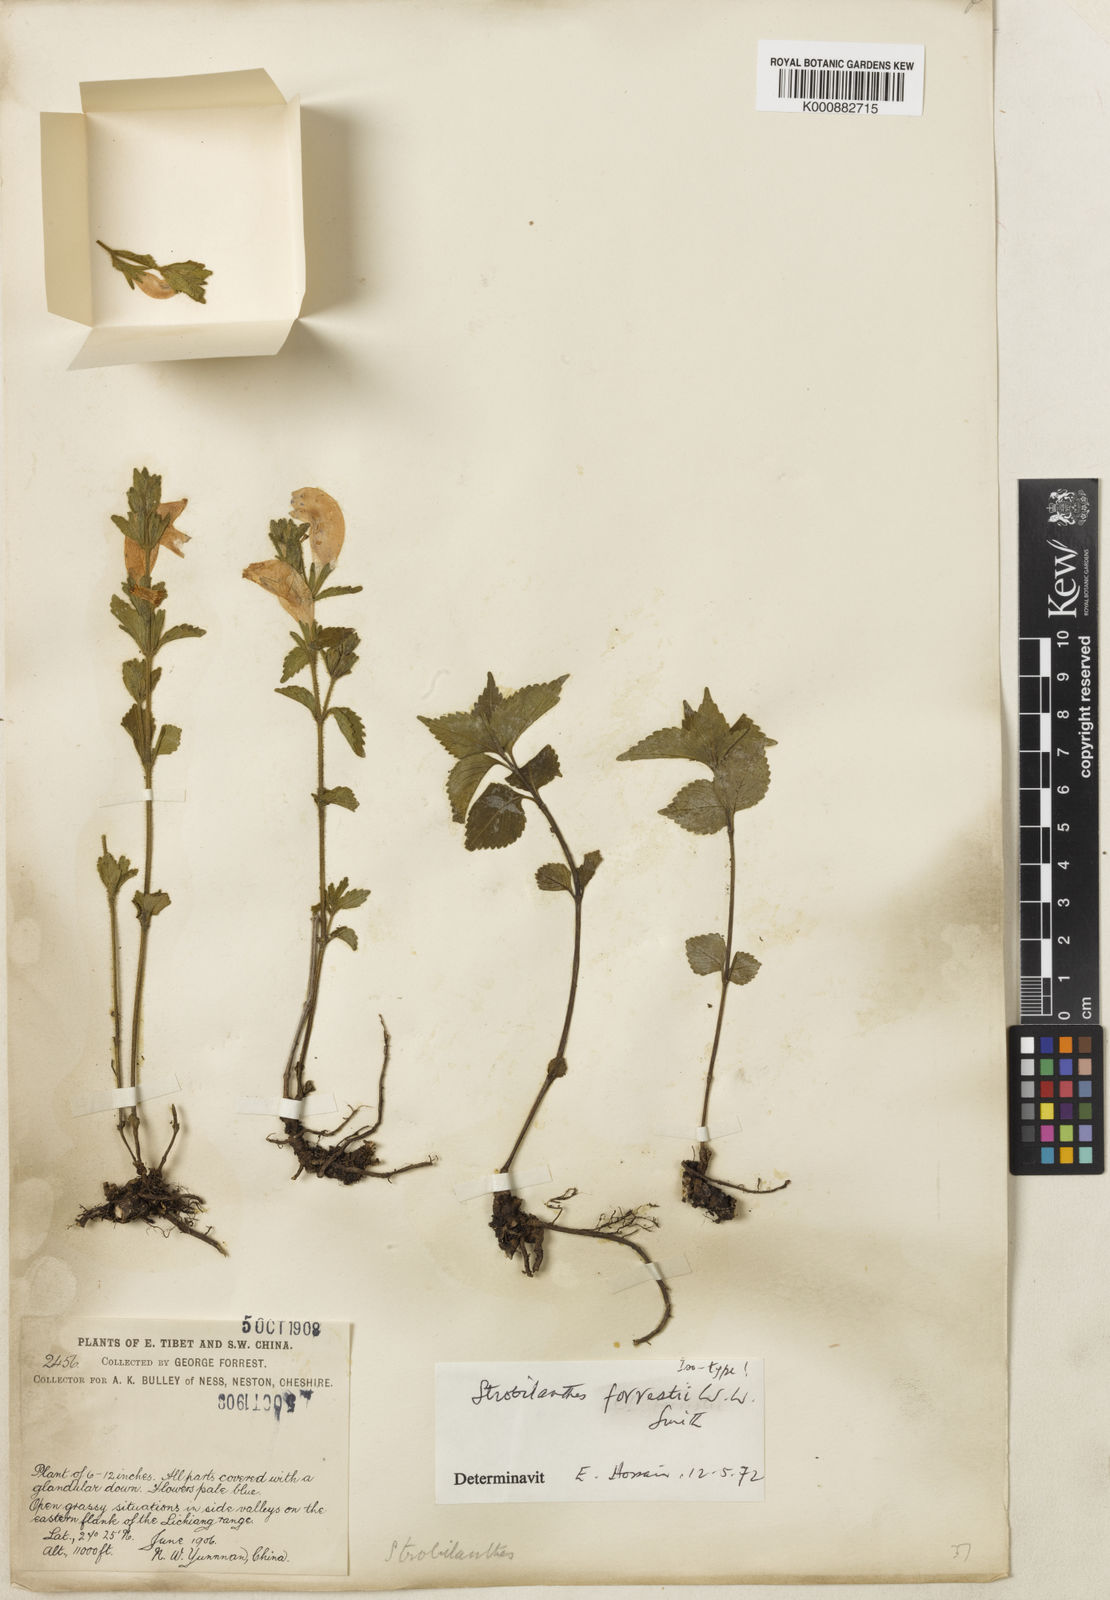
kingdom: Plantae
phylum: Tracheophyta
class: Magnoliopsida
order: Lamiales
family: Acanthaceae
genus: Strobilanthes
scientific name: Strobilanthes
